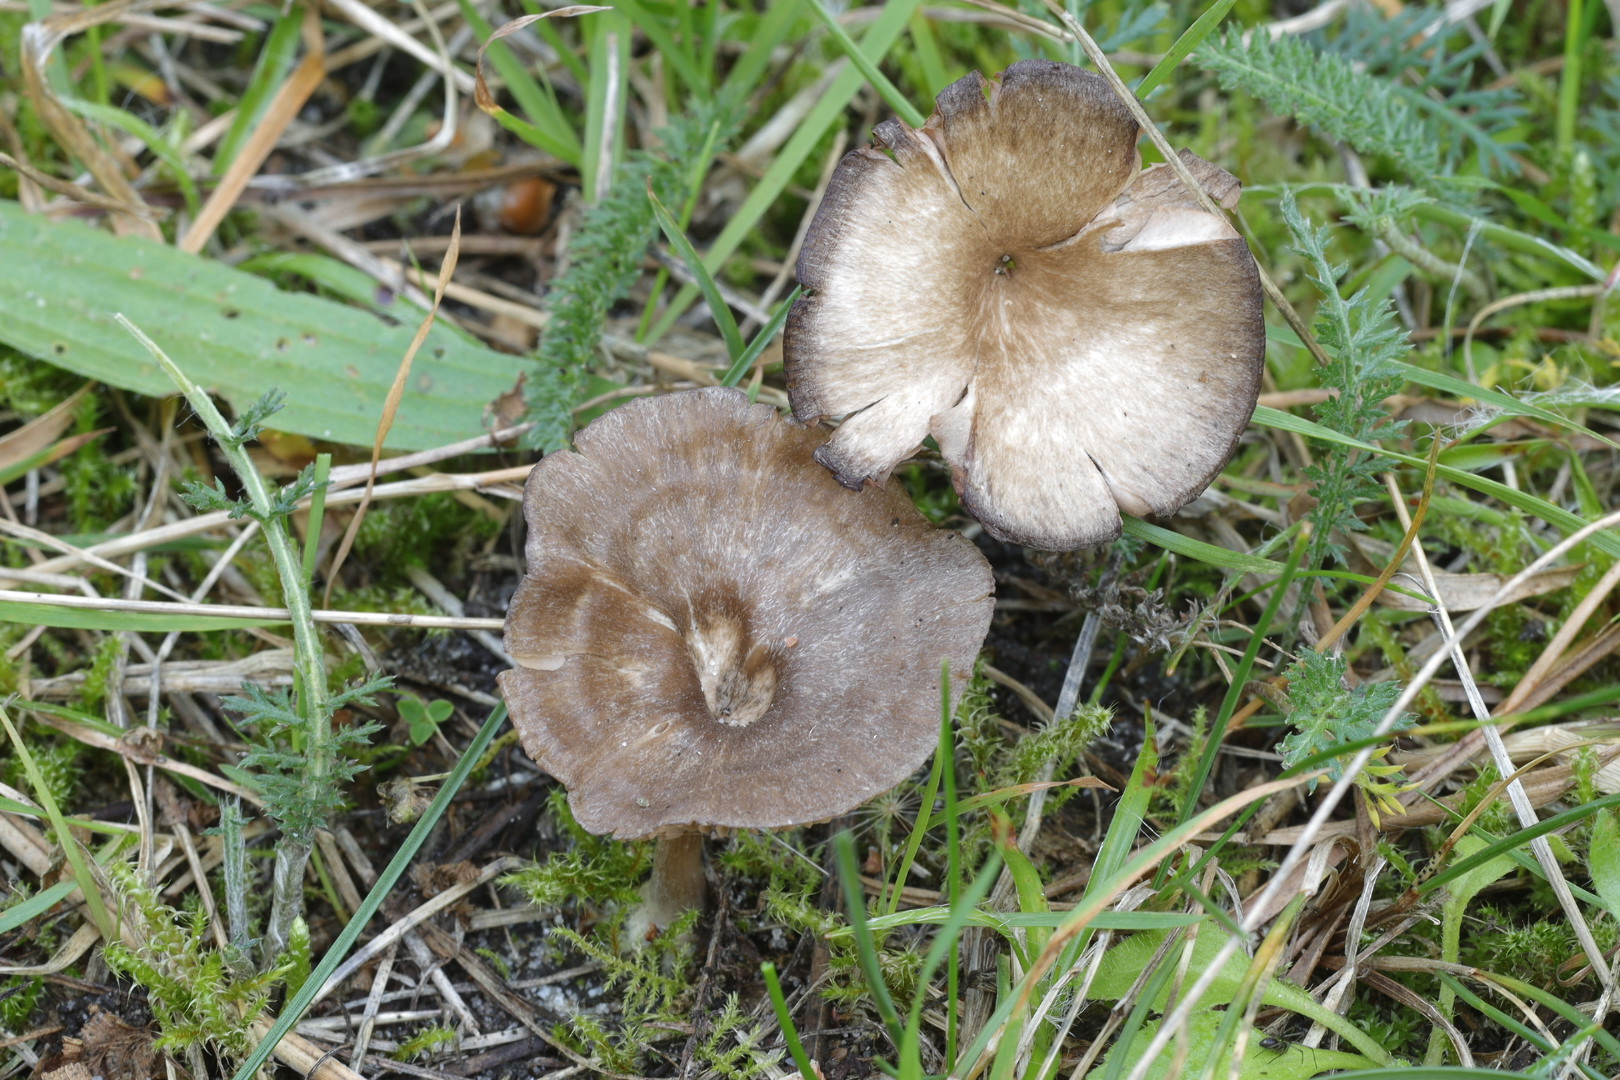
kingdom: Fungi
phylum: Basidiomycota
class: Agaricomycetes
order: Agaricales
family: Entolomataceae
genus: Entoloma
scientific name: Entoloma undatum
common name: bæltet rødblad
